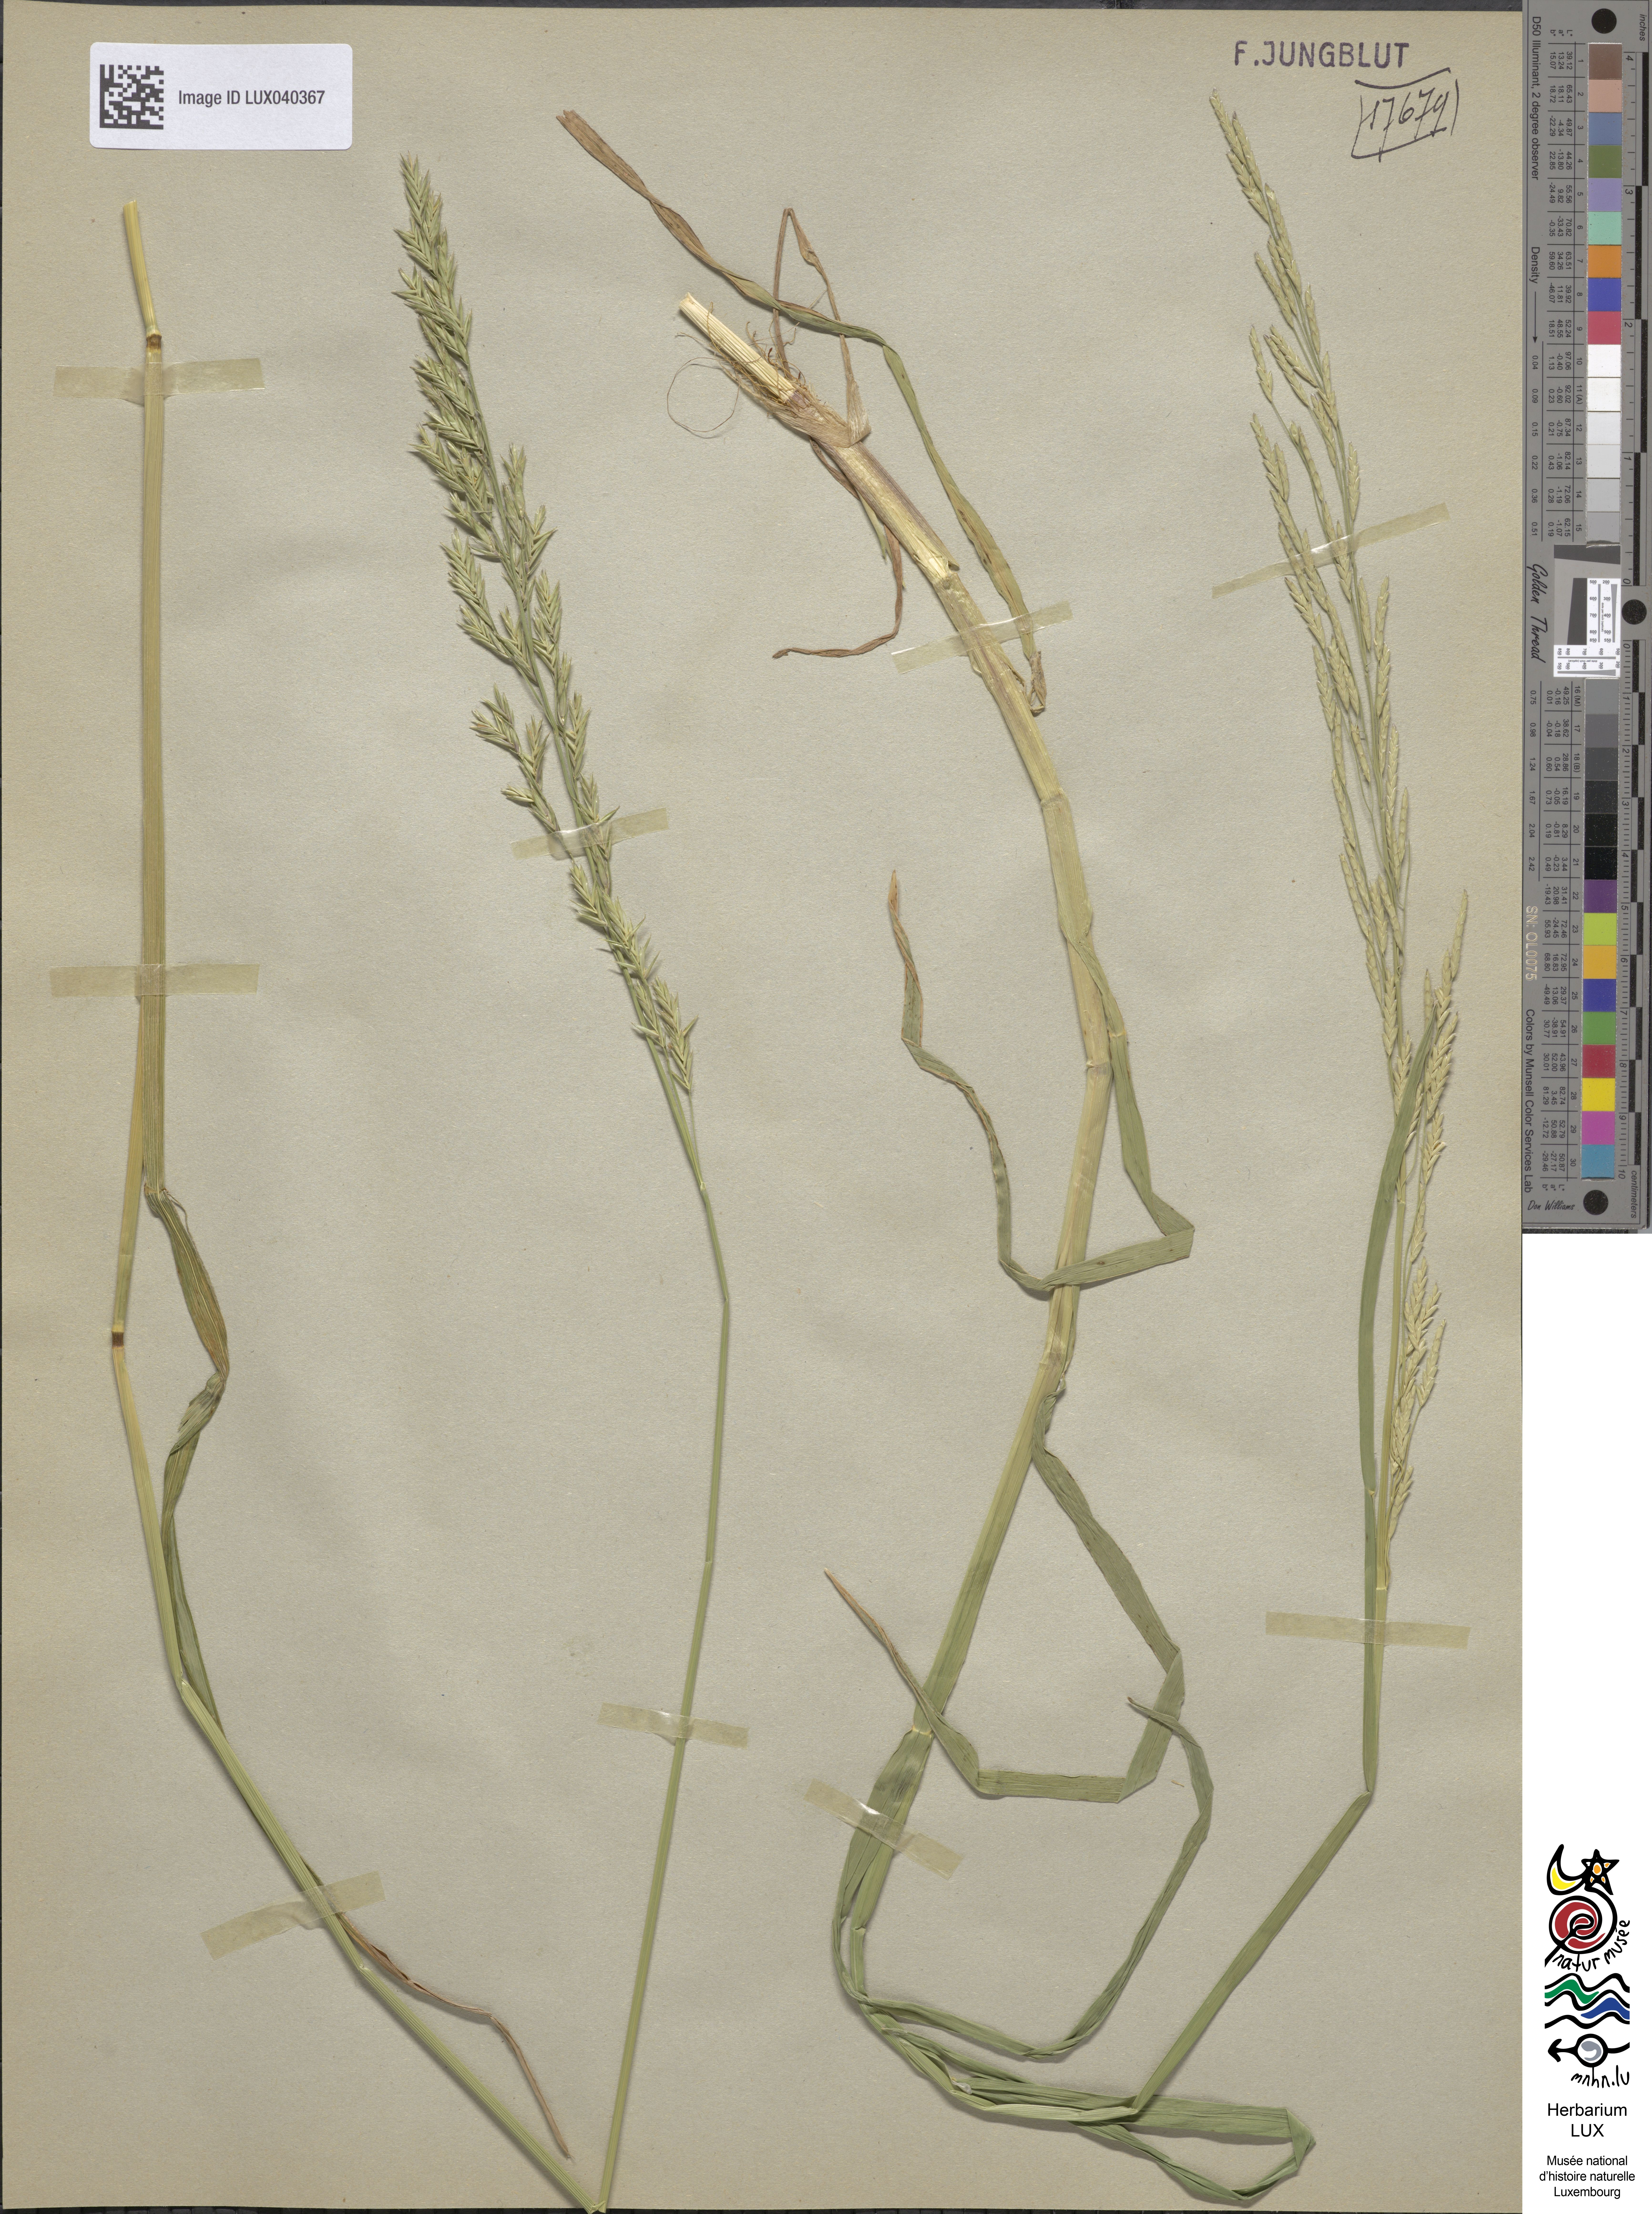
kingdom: Plantae
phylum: Tracheophyta
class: Liliopsida
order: Poales
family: Poaceae
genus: Glyceria
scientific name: Glyceria notata
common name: Plicate sweet-grass
